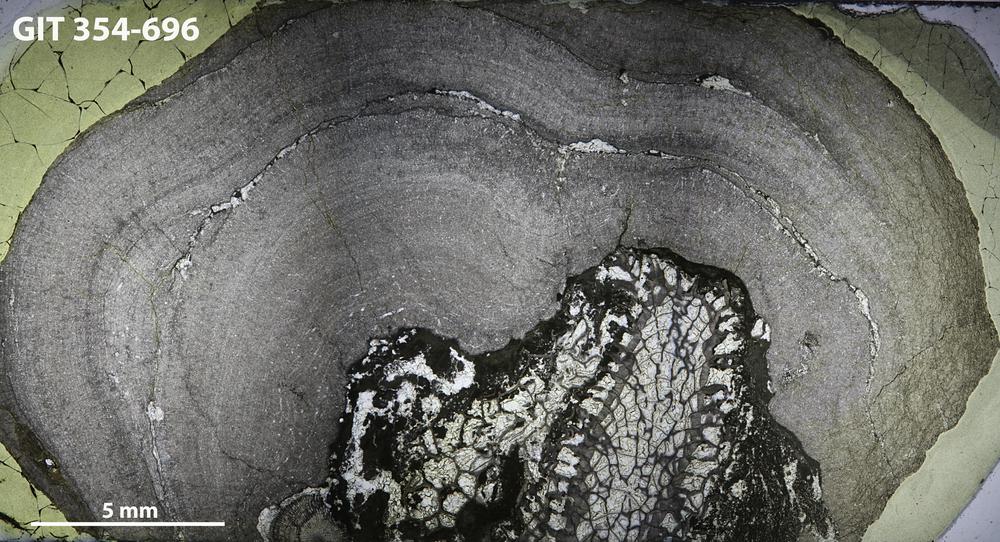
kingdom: Animalia
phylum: Porifera
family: Densastromatidae
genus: Araneosustroma
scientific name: Araneosustroma
